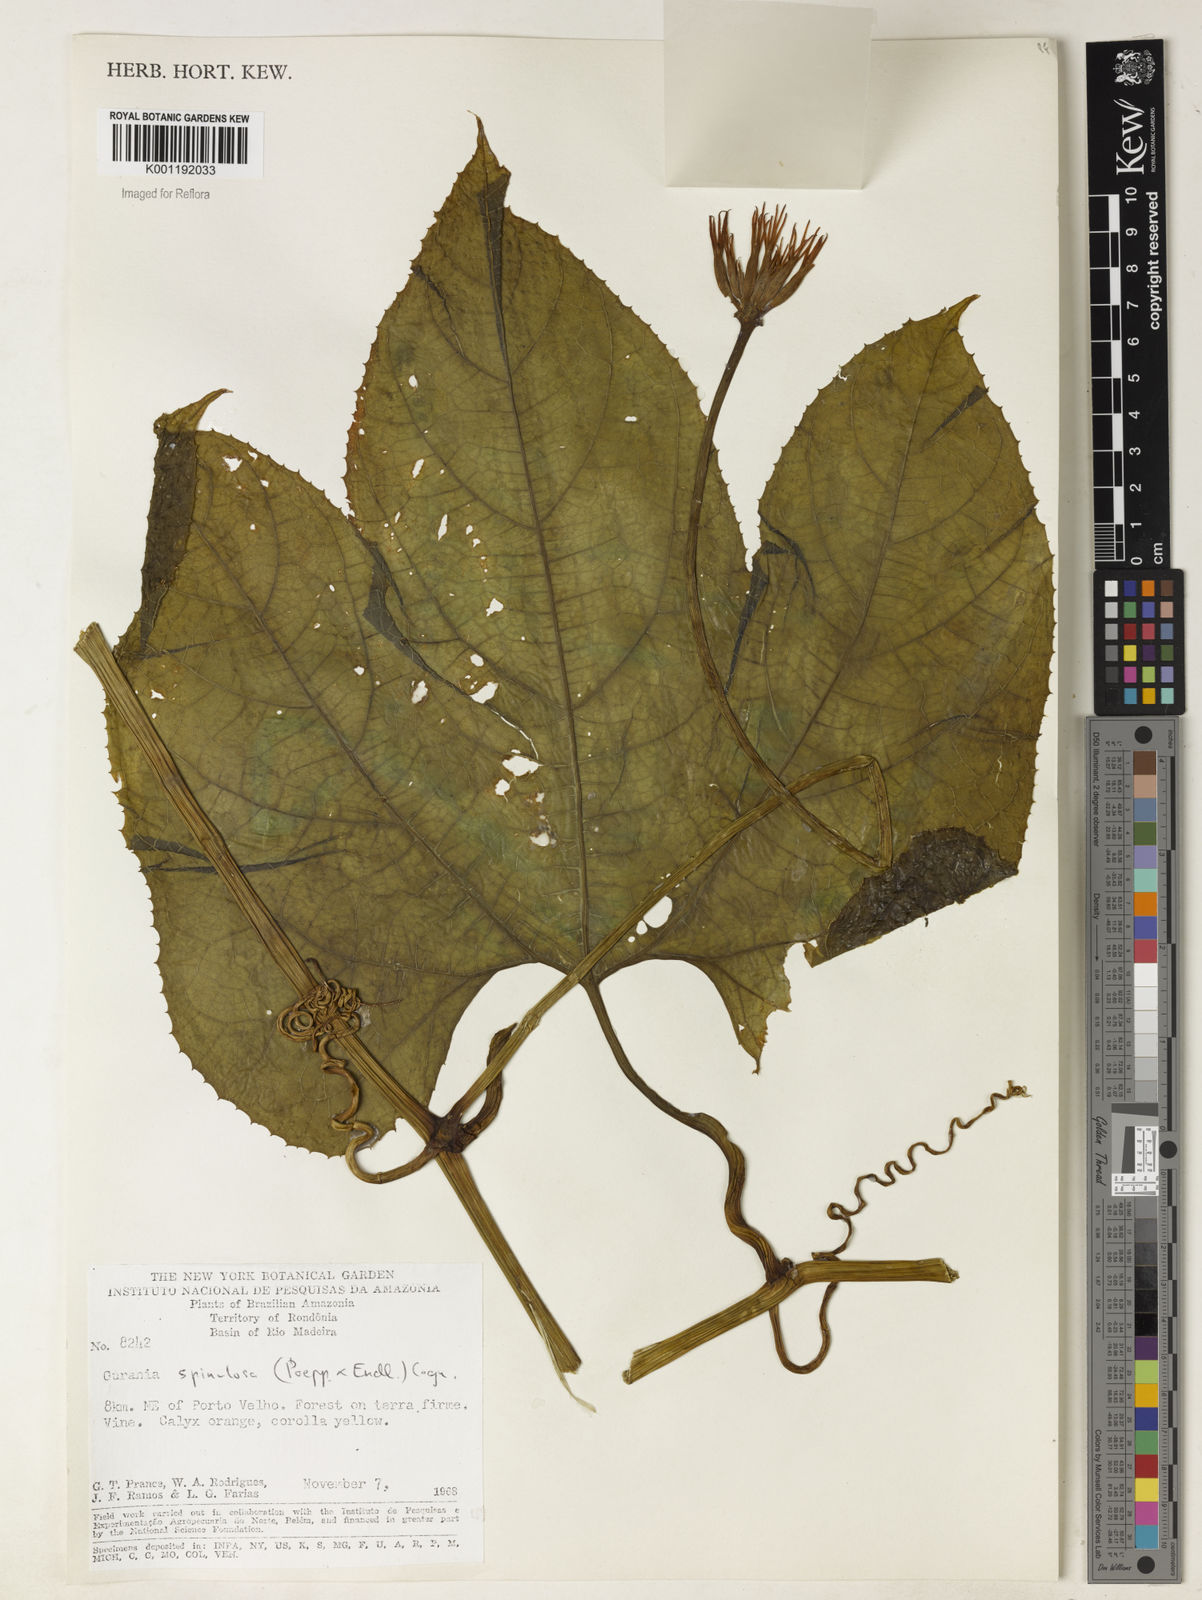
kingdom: Plantae
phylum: Tracheophyta
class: Magnoliopsida
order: Cucurbitales
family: Cucurbitaceae
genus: Gurania
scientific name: Gurania lobata
